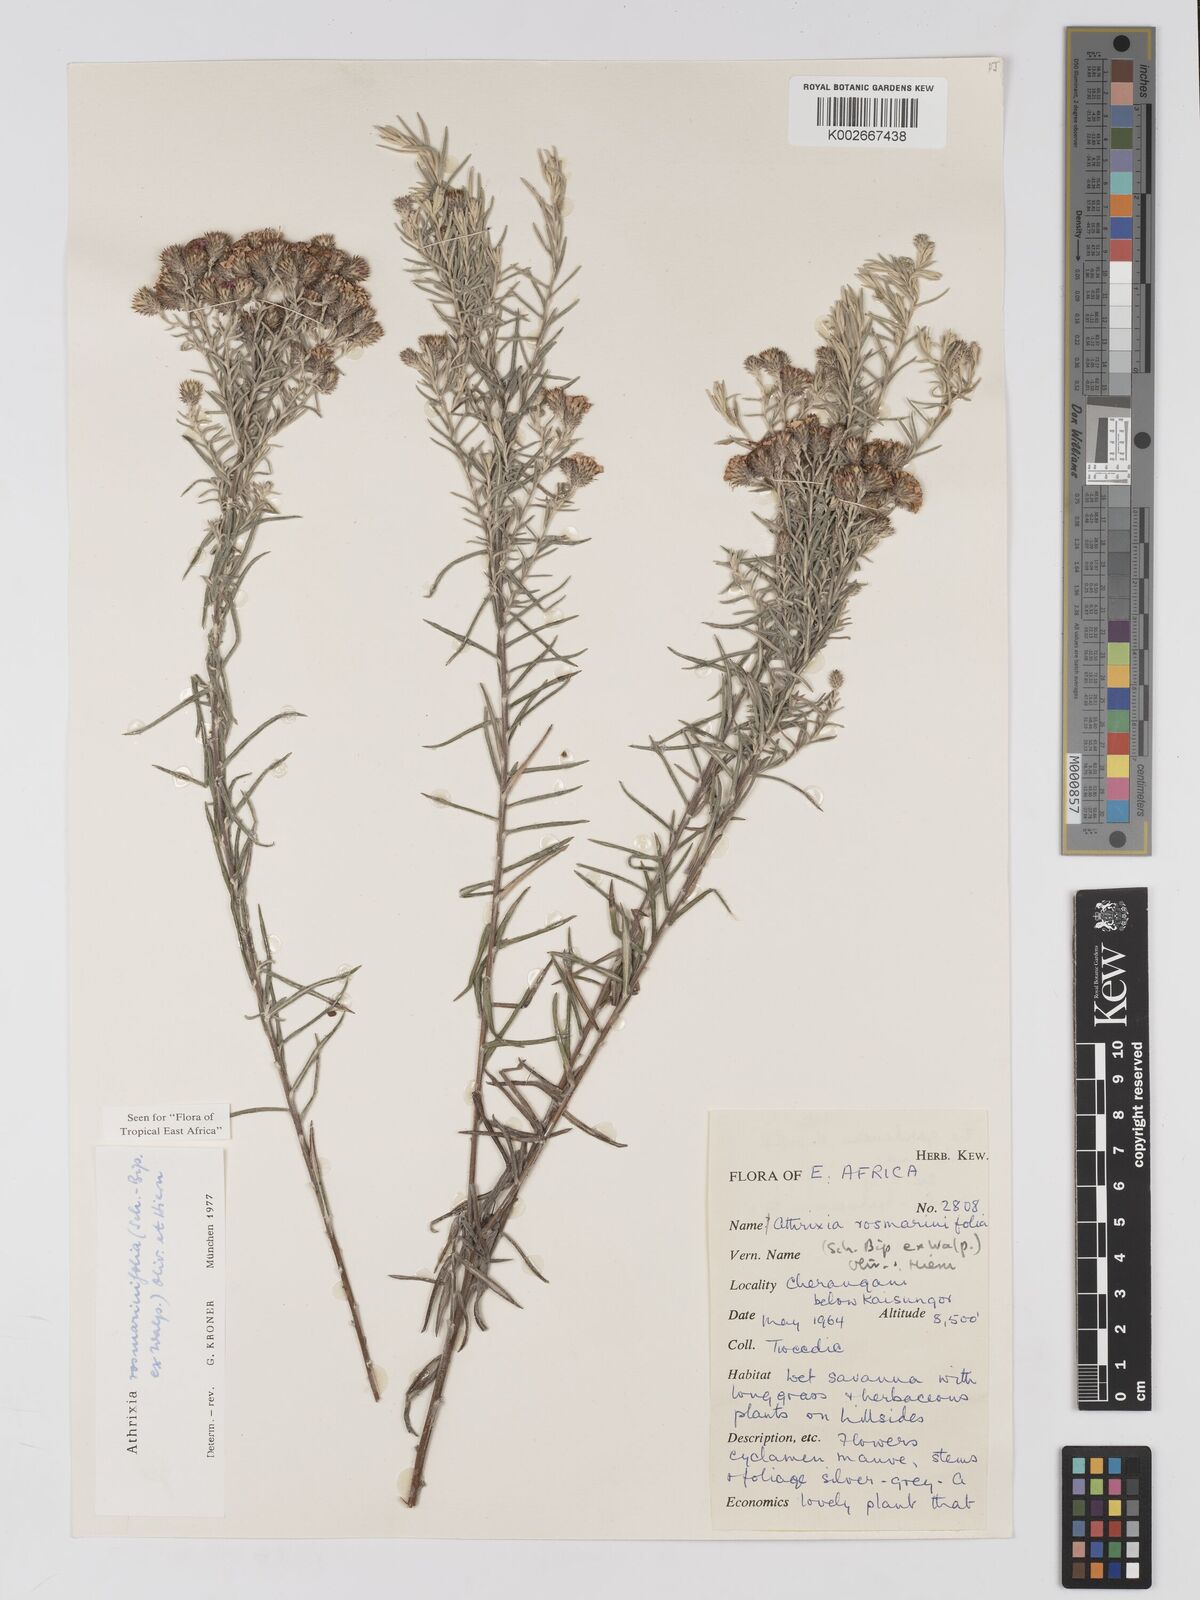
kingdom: Plantae
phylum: Tracheophyta
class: Magnoliopsida
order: Asterales
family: Asteraceae
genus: Athrixia
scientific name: Athrixia rosmarinifolia
